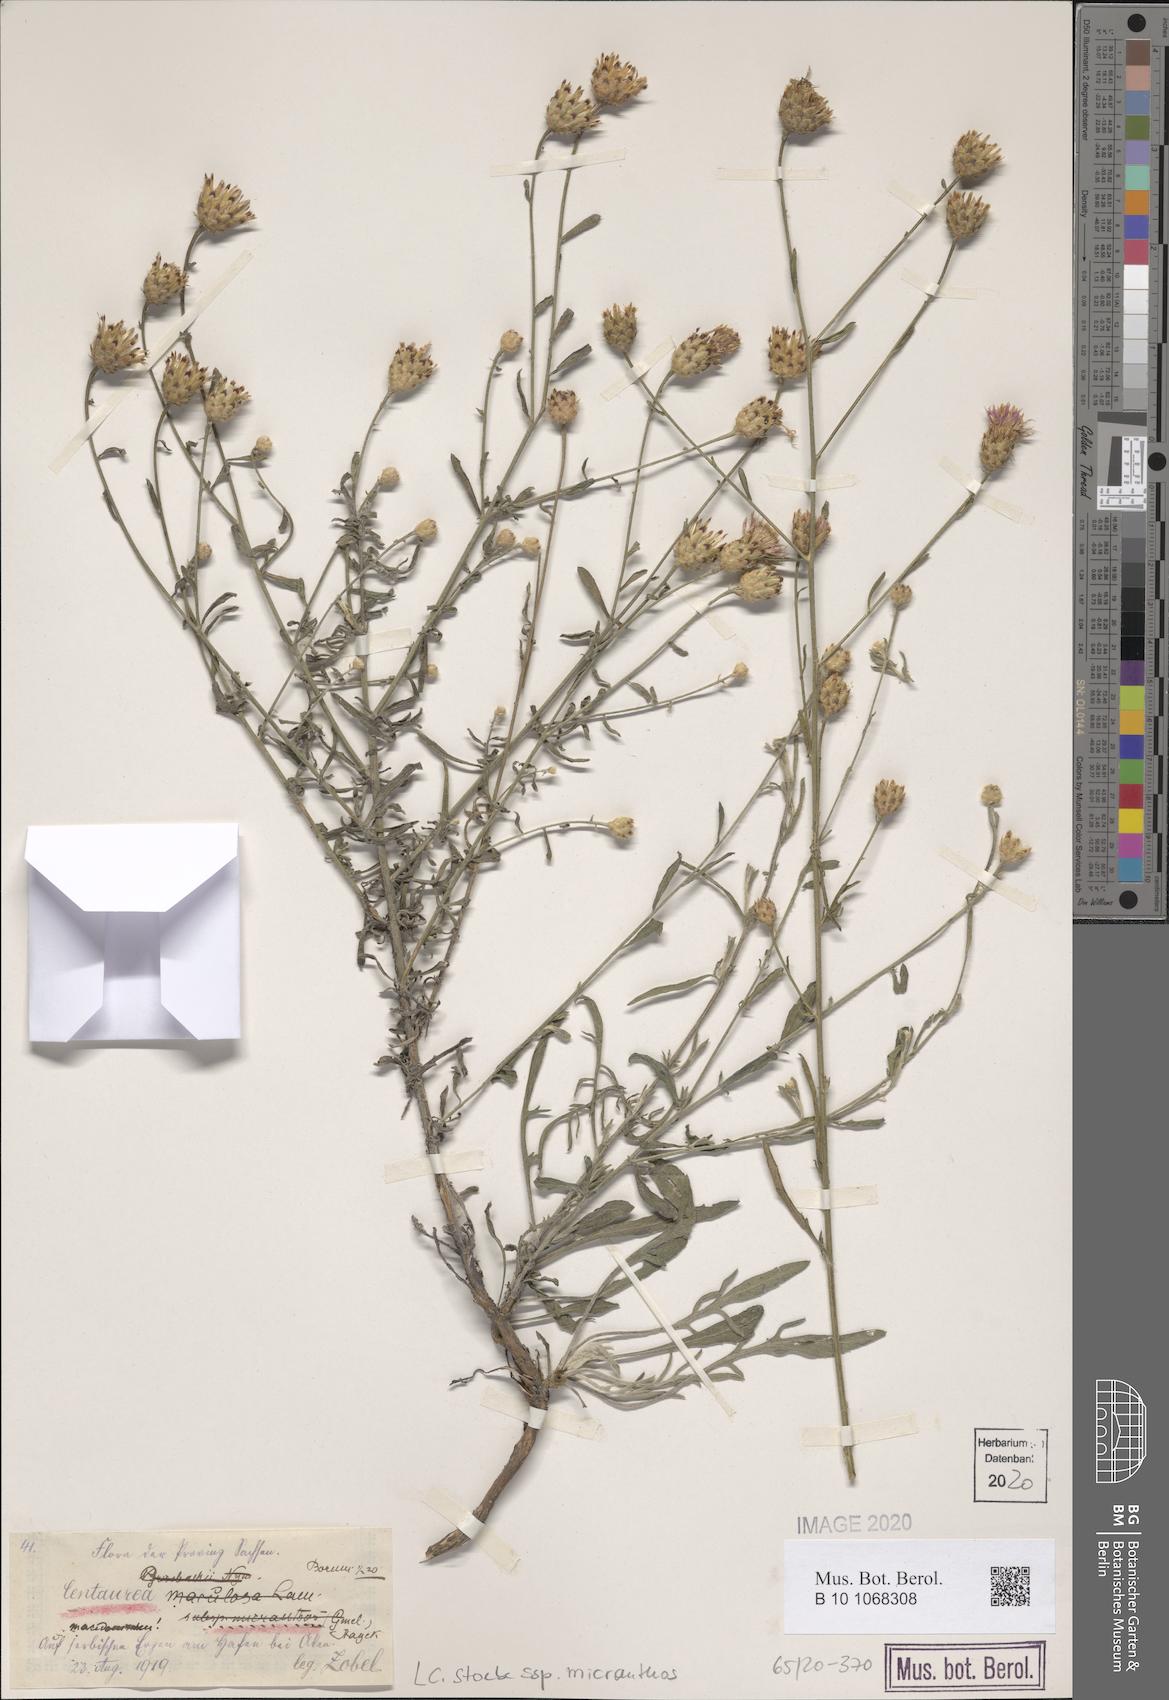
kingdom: Plantae
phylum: Tracheophyta
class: Magnoliopsida
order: Asterales
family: Asteraceae
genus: Centaurea
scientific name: Centaurea australis
